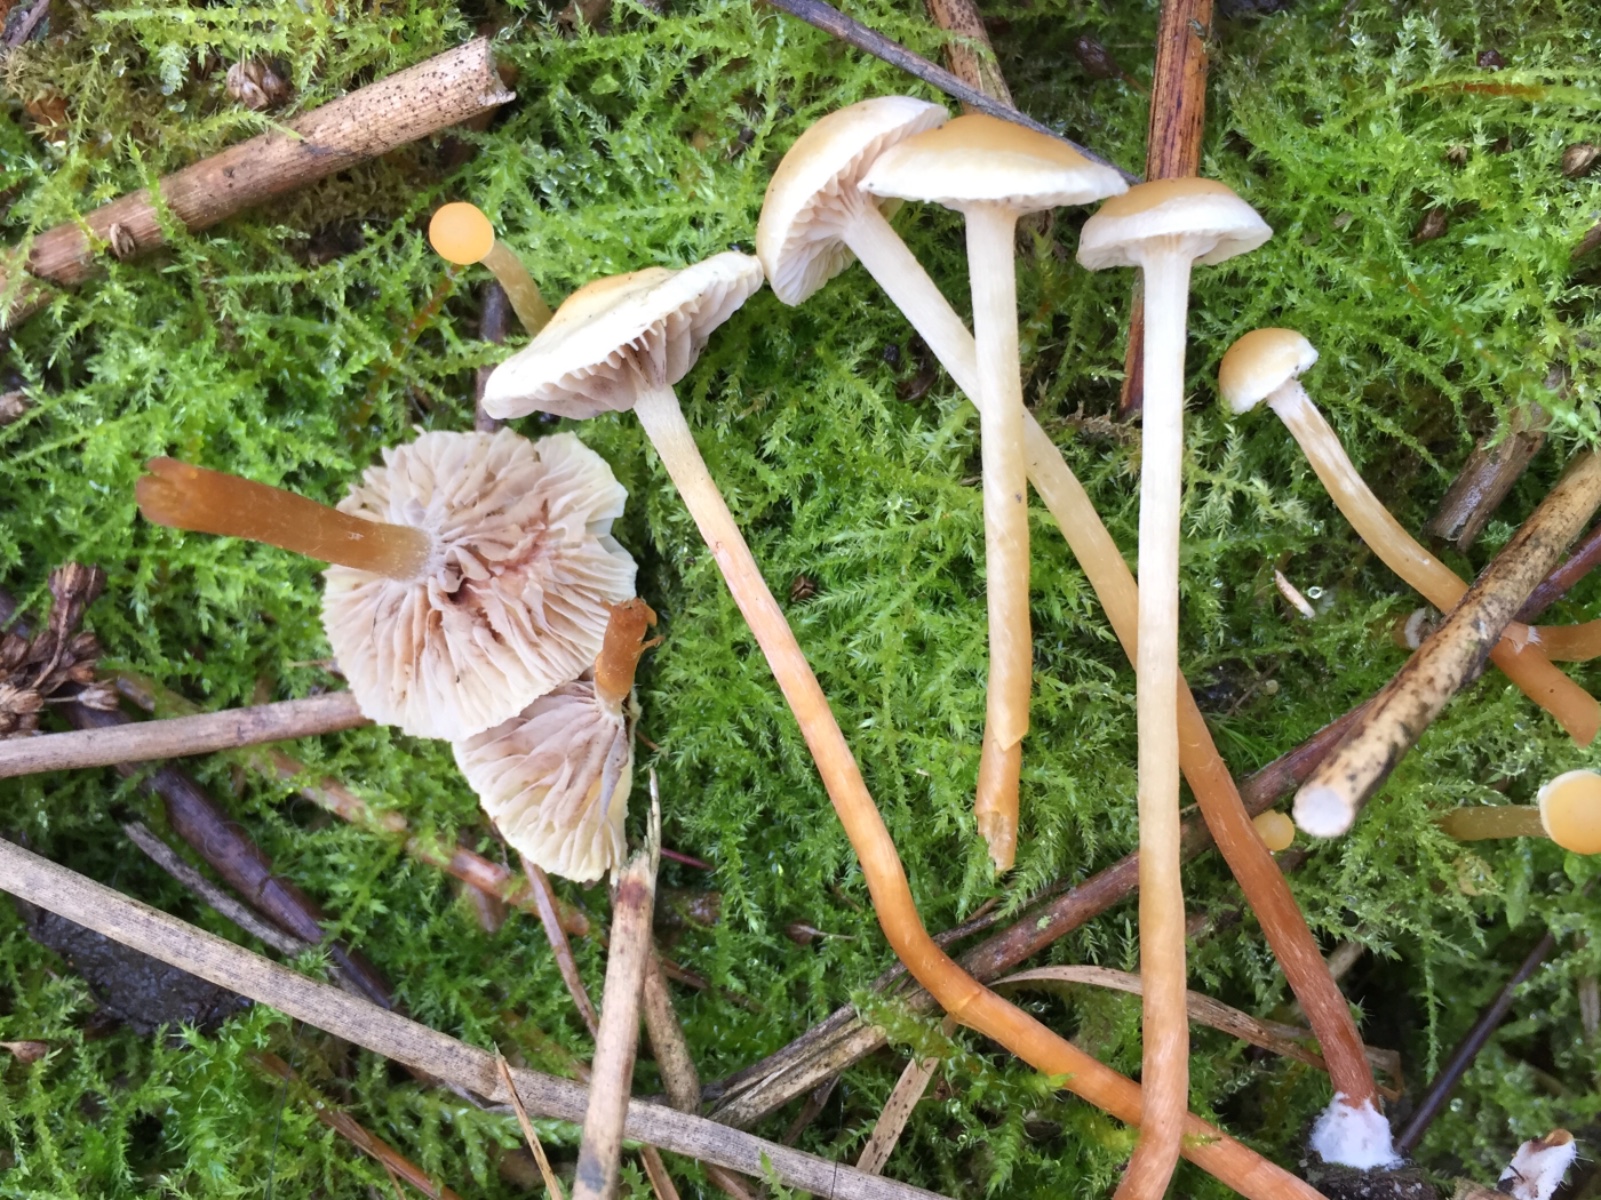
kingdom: Fungi
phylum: Basidiomycota
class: Agaricomycetes
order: Agaricales
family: Strophariaceae
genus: Hypholoma
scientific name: Hypholoma elongatum
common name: slank svovlhat
